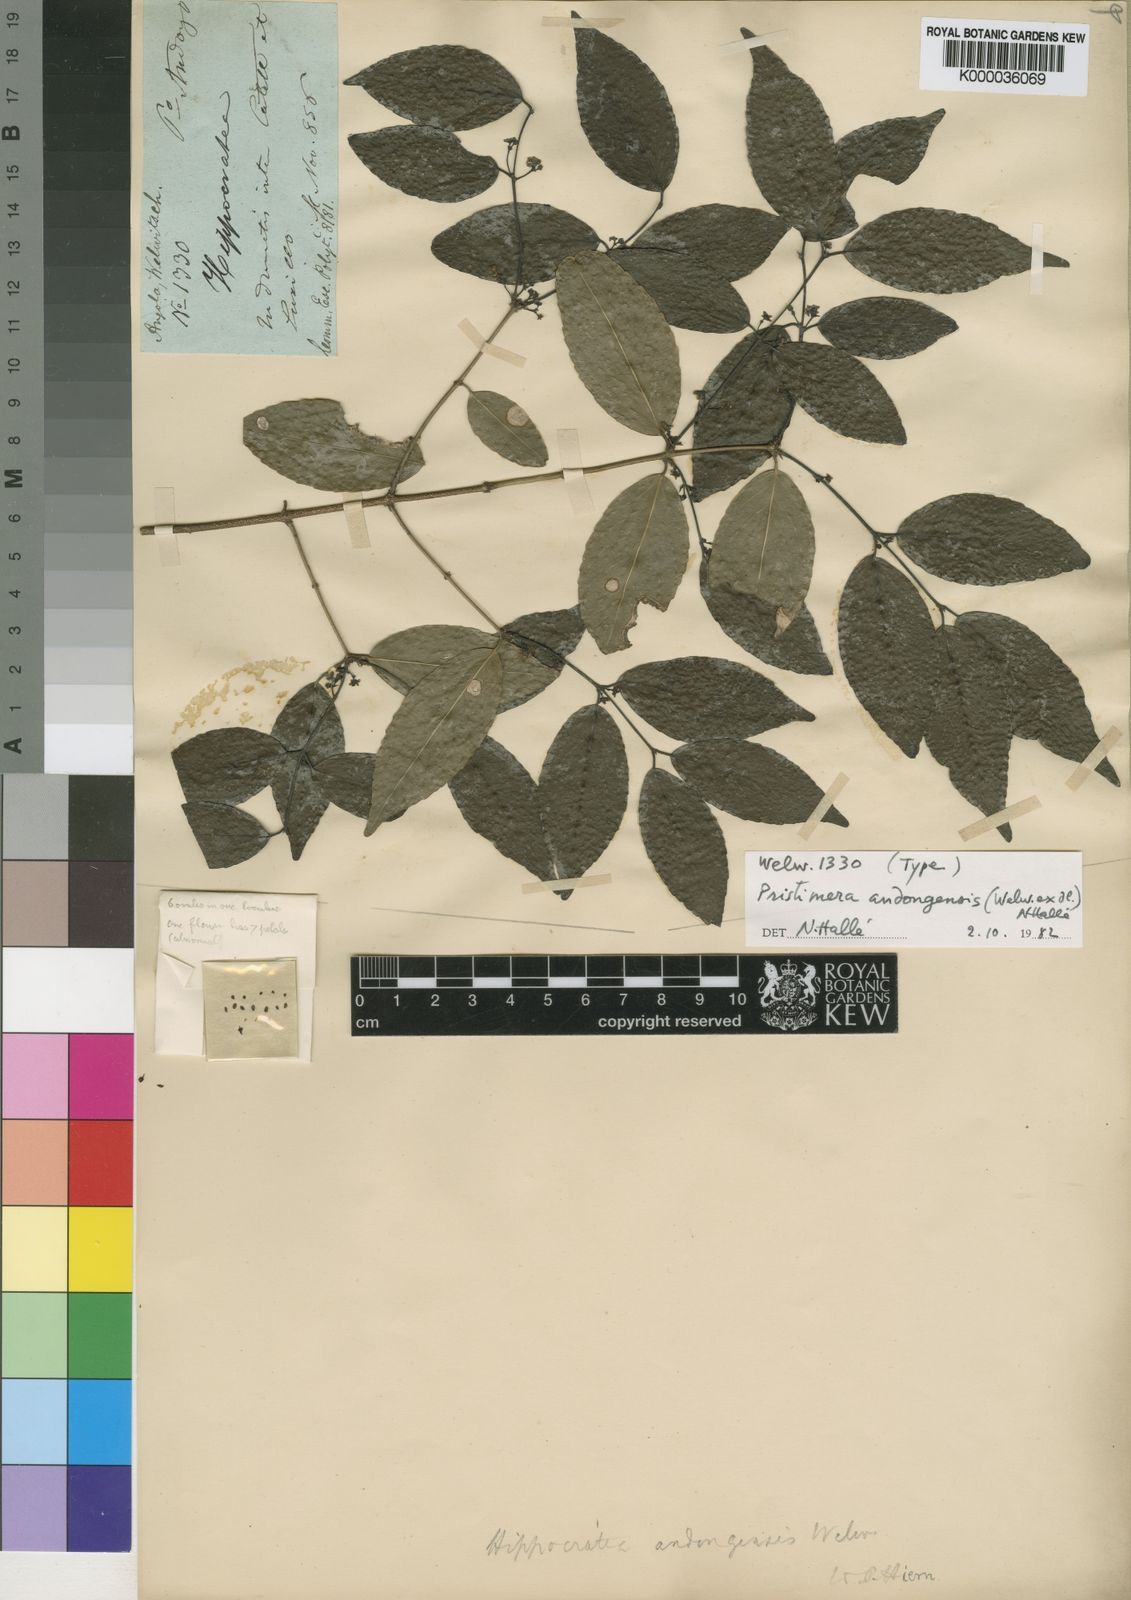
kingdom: Plantae
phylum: Tracheophyta
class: Magnoliopsida
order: Celastrales
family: Celastraceae
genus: Pristimera
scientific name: Pristimera
